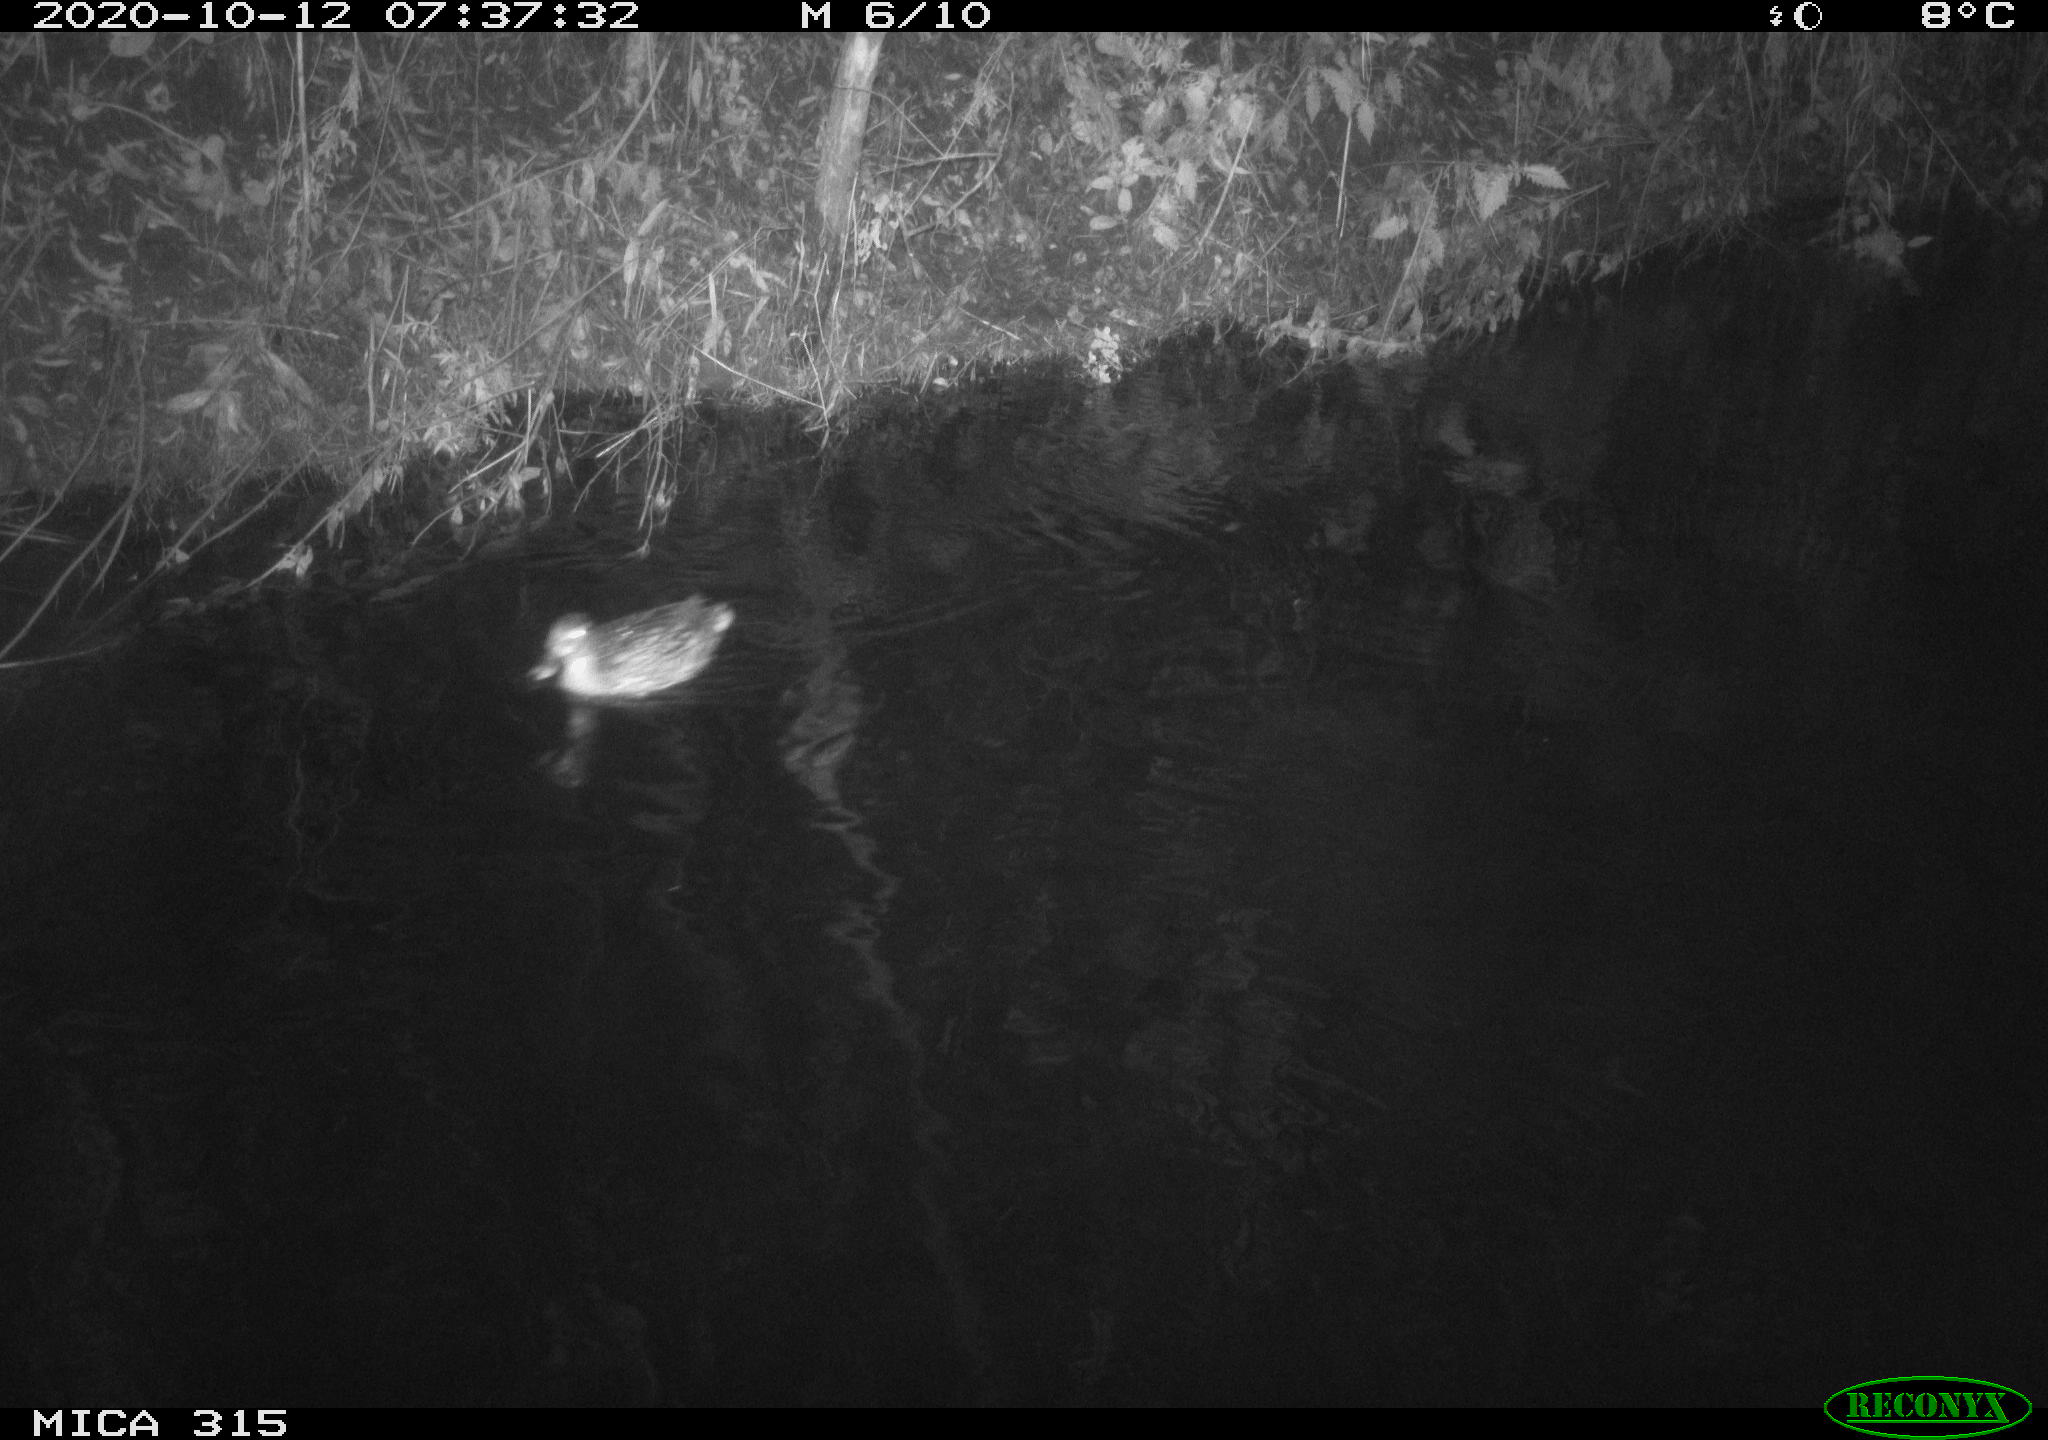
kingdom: Animalia
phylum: Chordata
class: Aves
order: Anseriformes
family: Anatidae
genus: Anas
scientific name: Anas platyrhynchos
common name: Mallard
